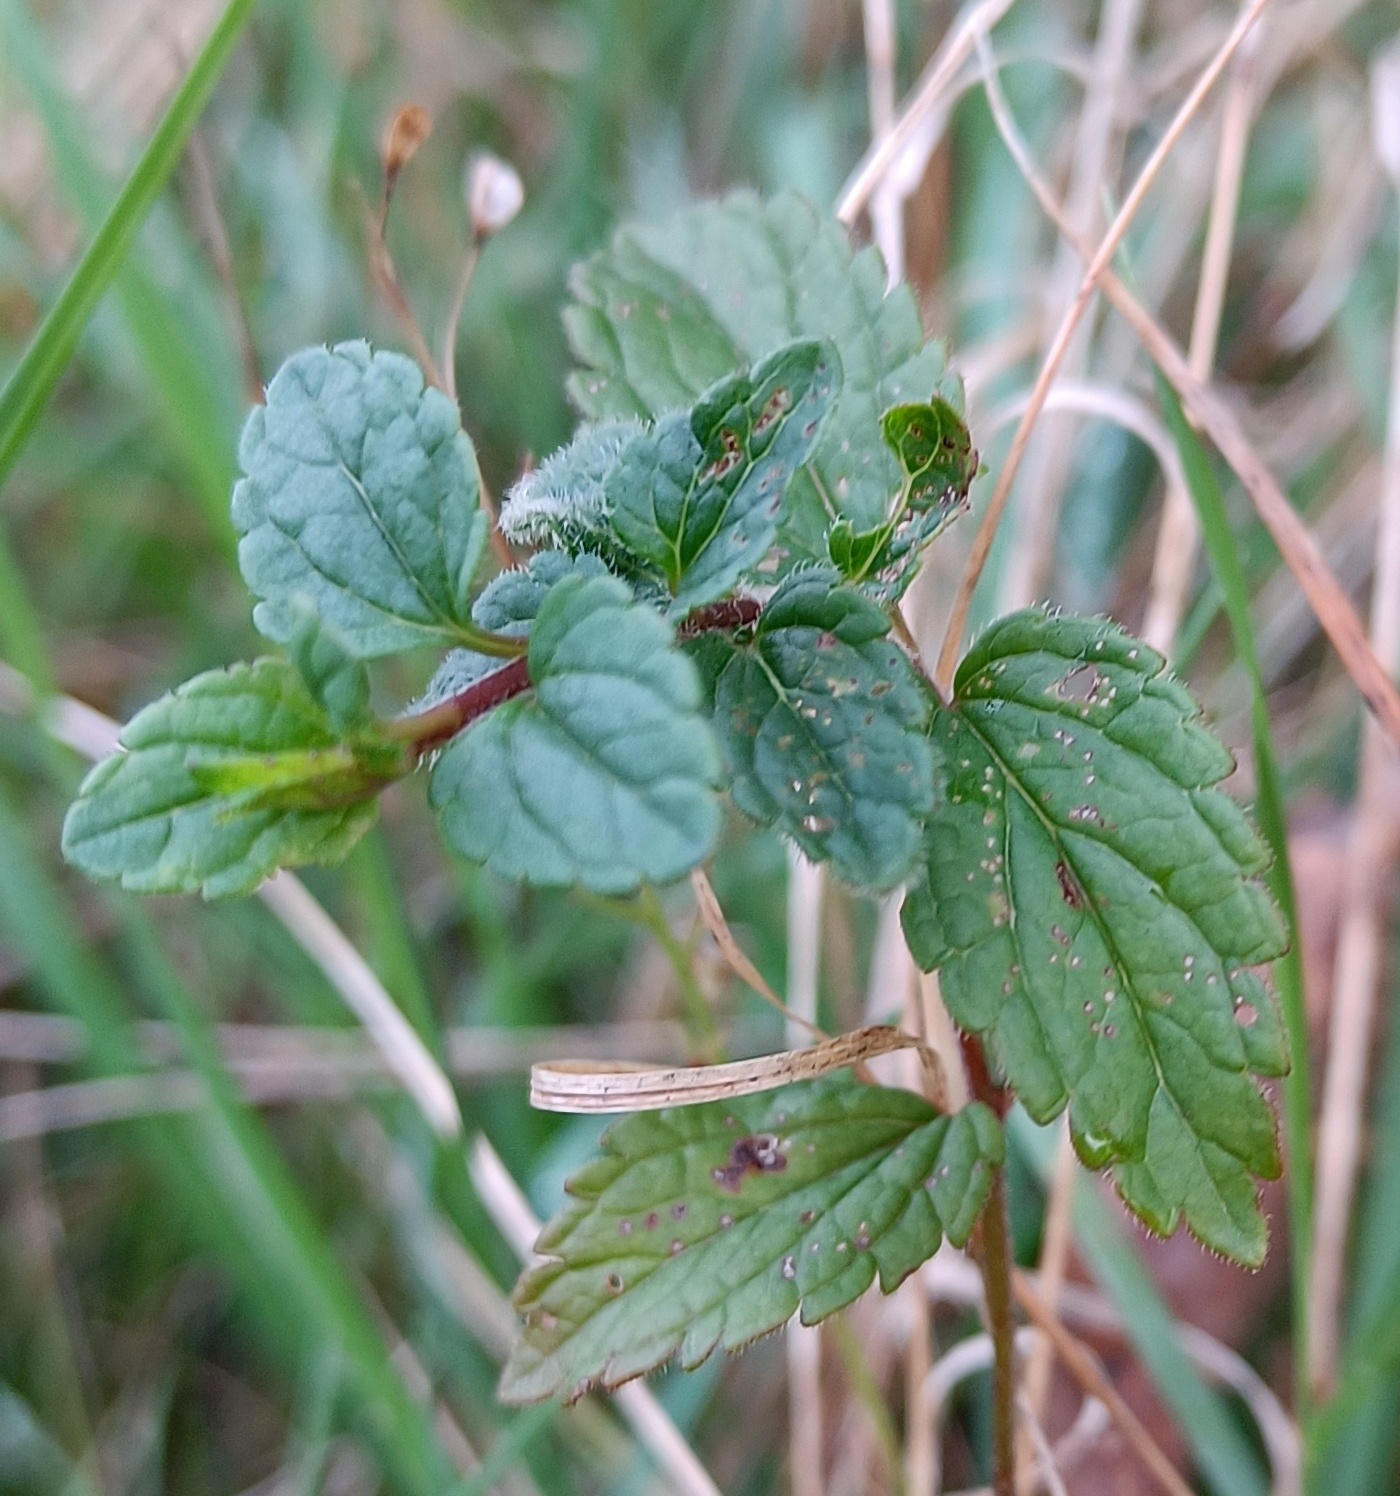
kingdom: Plantae
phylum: Tracheophyta
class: Magnoliopsida
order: Lamiales
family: Plantaginaceae
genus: Veronica
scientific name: Veronica chamaedrys
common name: Tveskægget ærenpris
